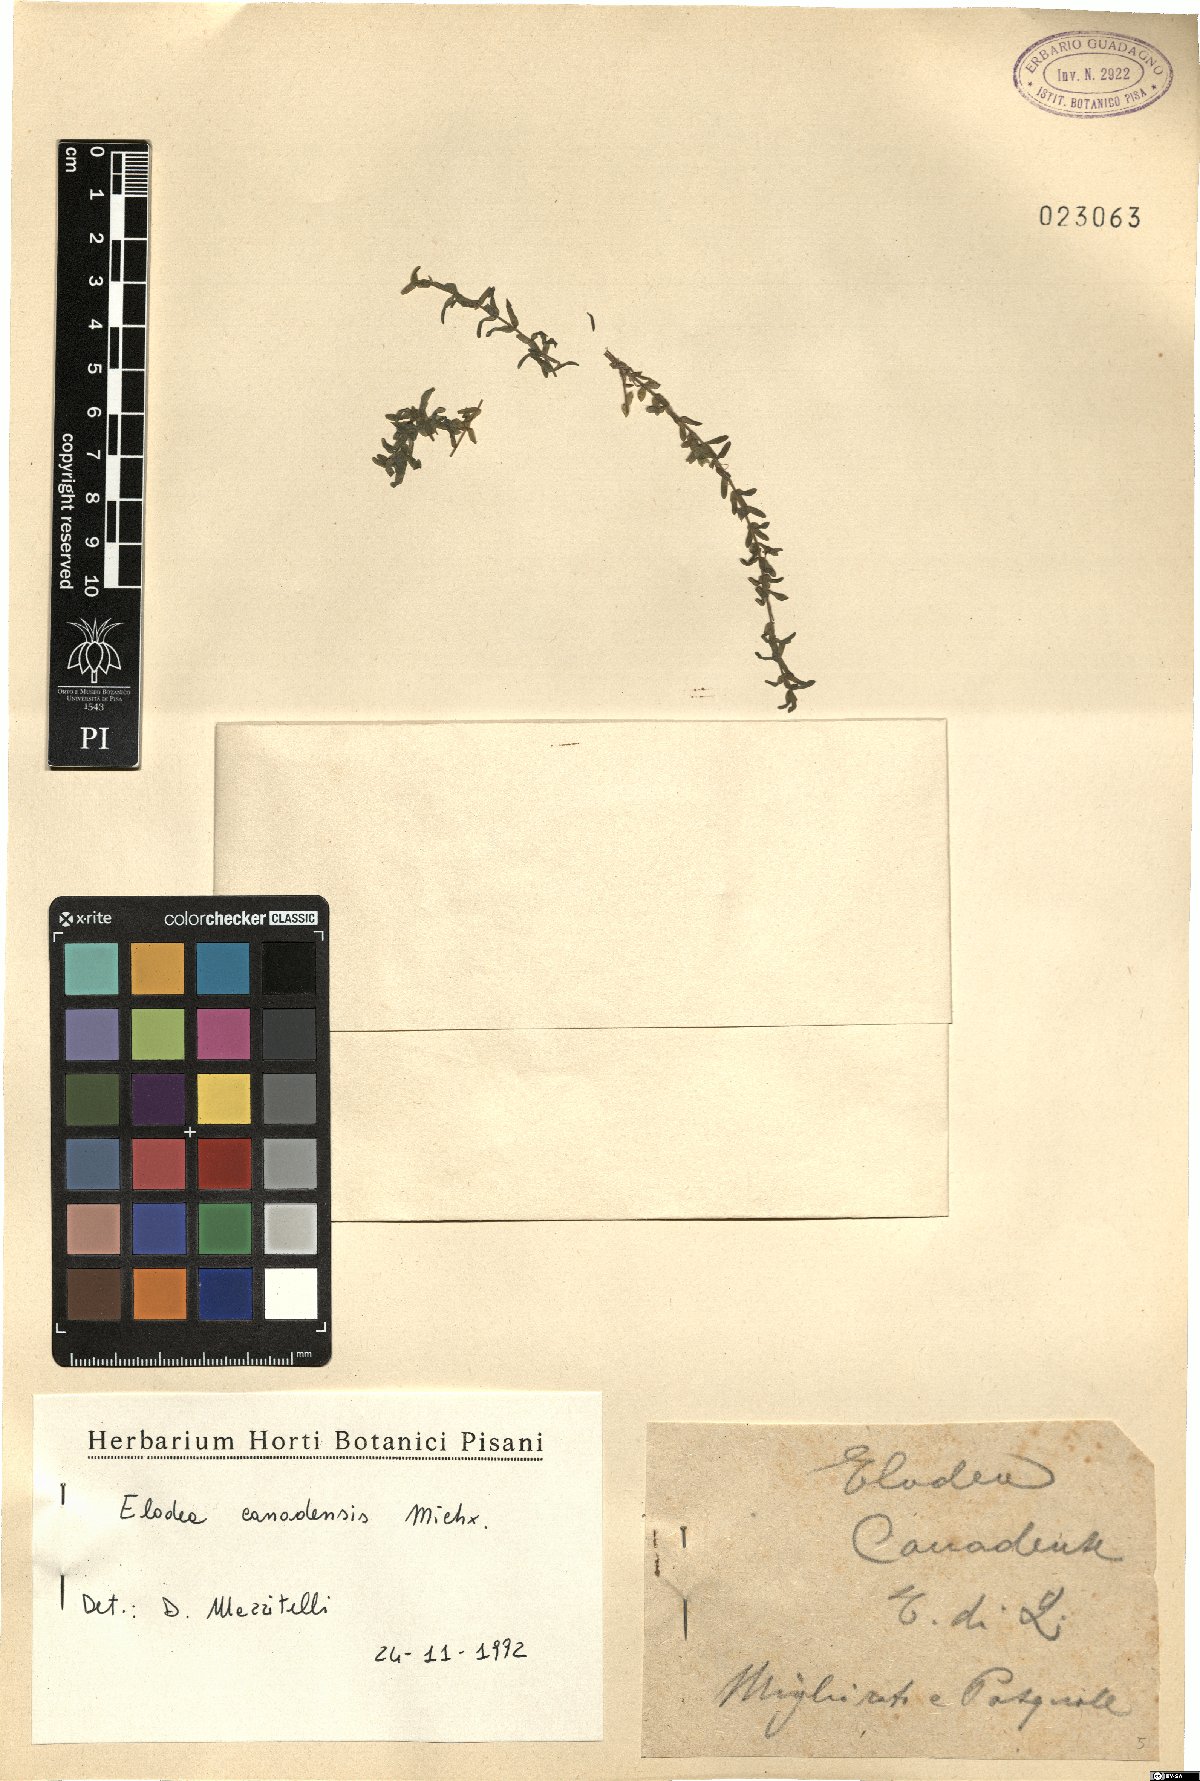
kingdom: Plantae
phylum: Tracheophyta
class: Liliopsida
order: Alismatales
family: Hydrocharitaceae
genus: Elodea
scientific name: Elodea canadensis
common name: Canadian waterweed
